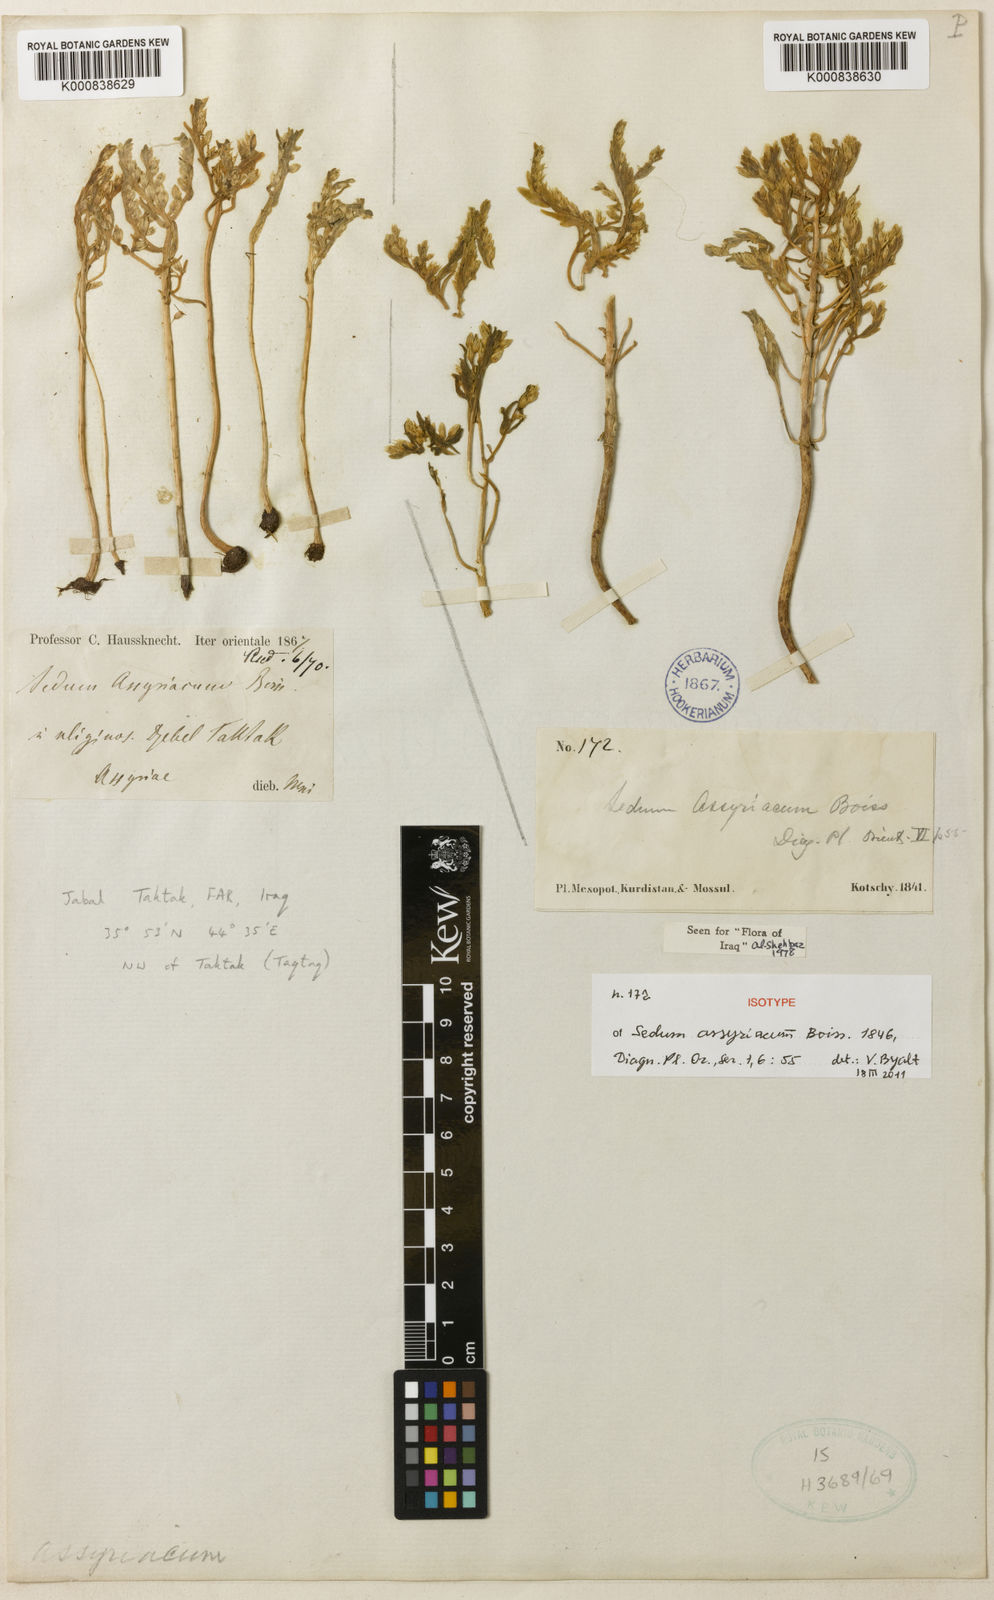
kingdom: Plantae
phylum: Tracheophyta
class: Magnoliopsida
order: Saxifragales
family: Crassulaceae
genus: Sedum
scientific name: Sedum assyriacum
